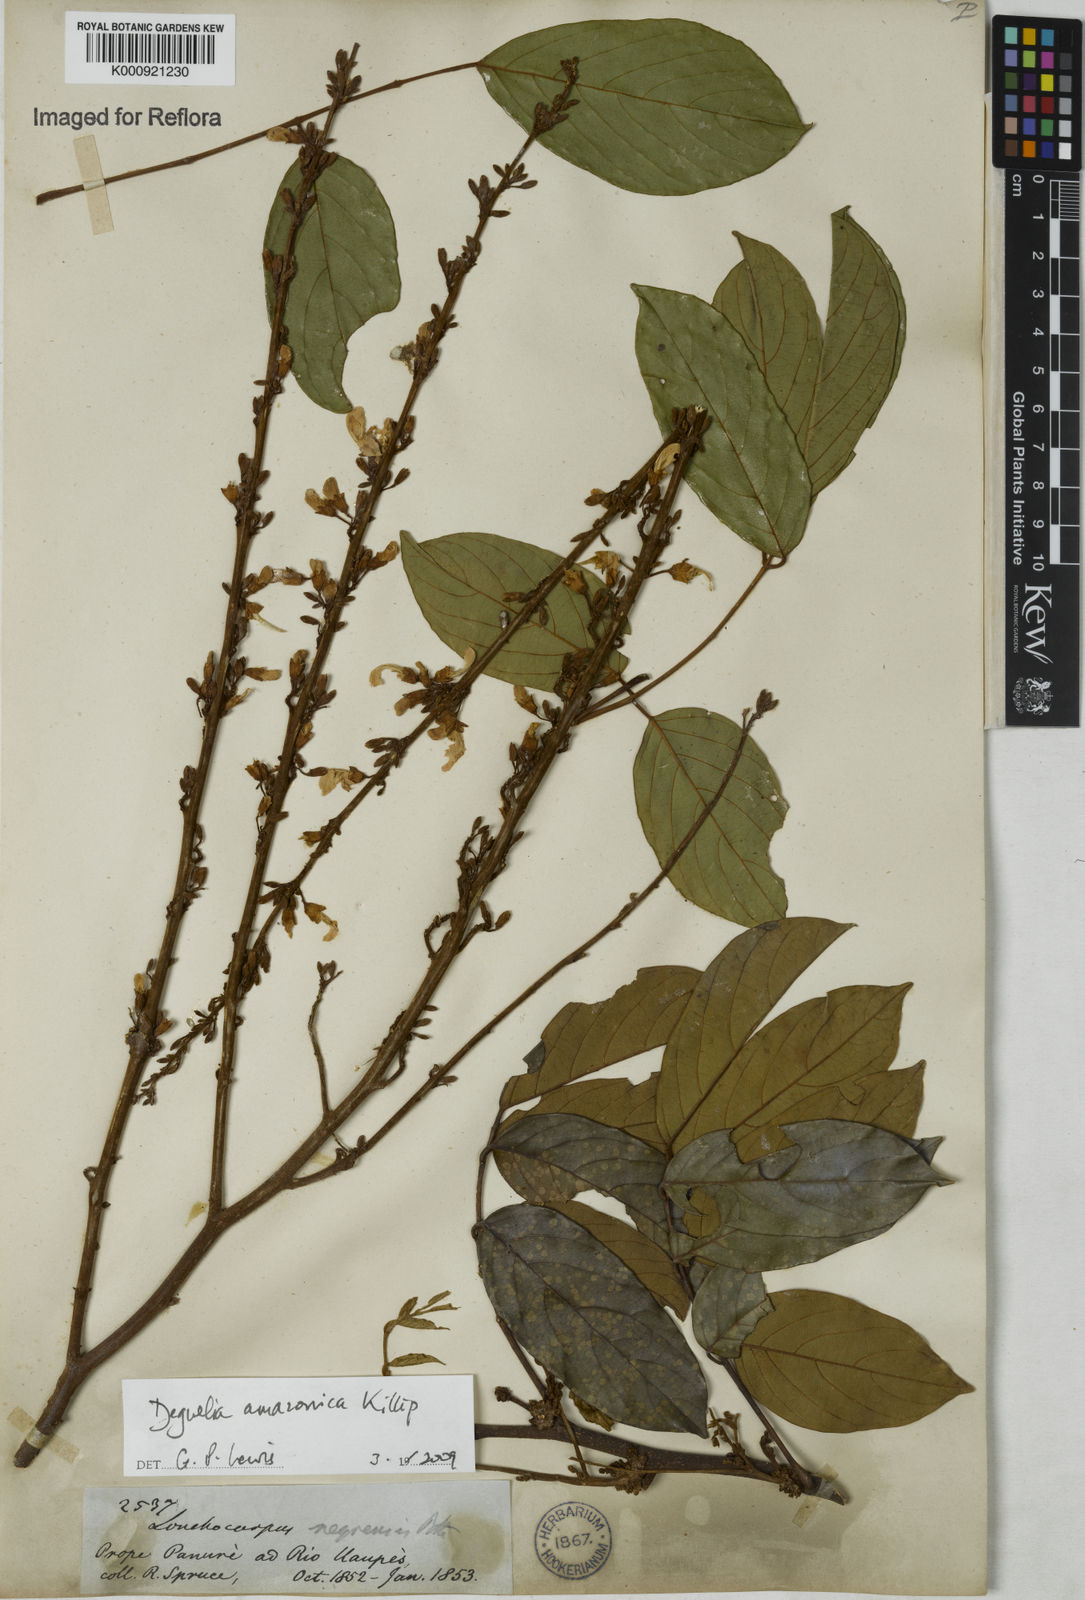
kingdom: Plantae
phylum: Tracheophyta
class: Magnoliopsida
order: Fabales
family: Fabaceae
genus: Deguelia
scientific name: Deguelia amazonica
